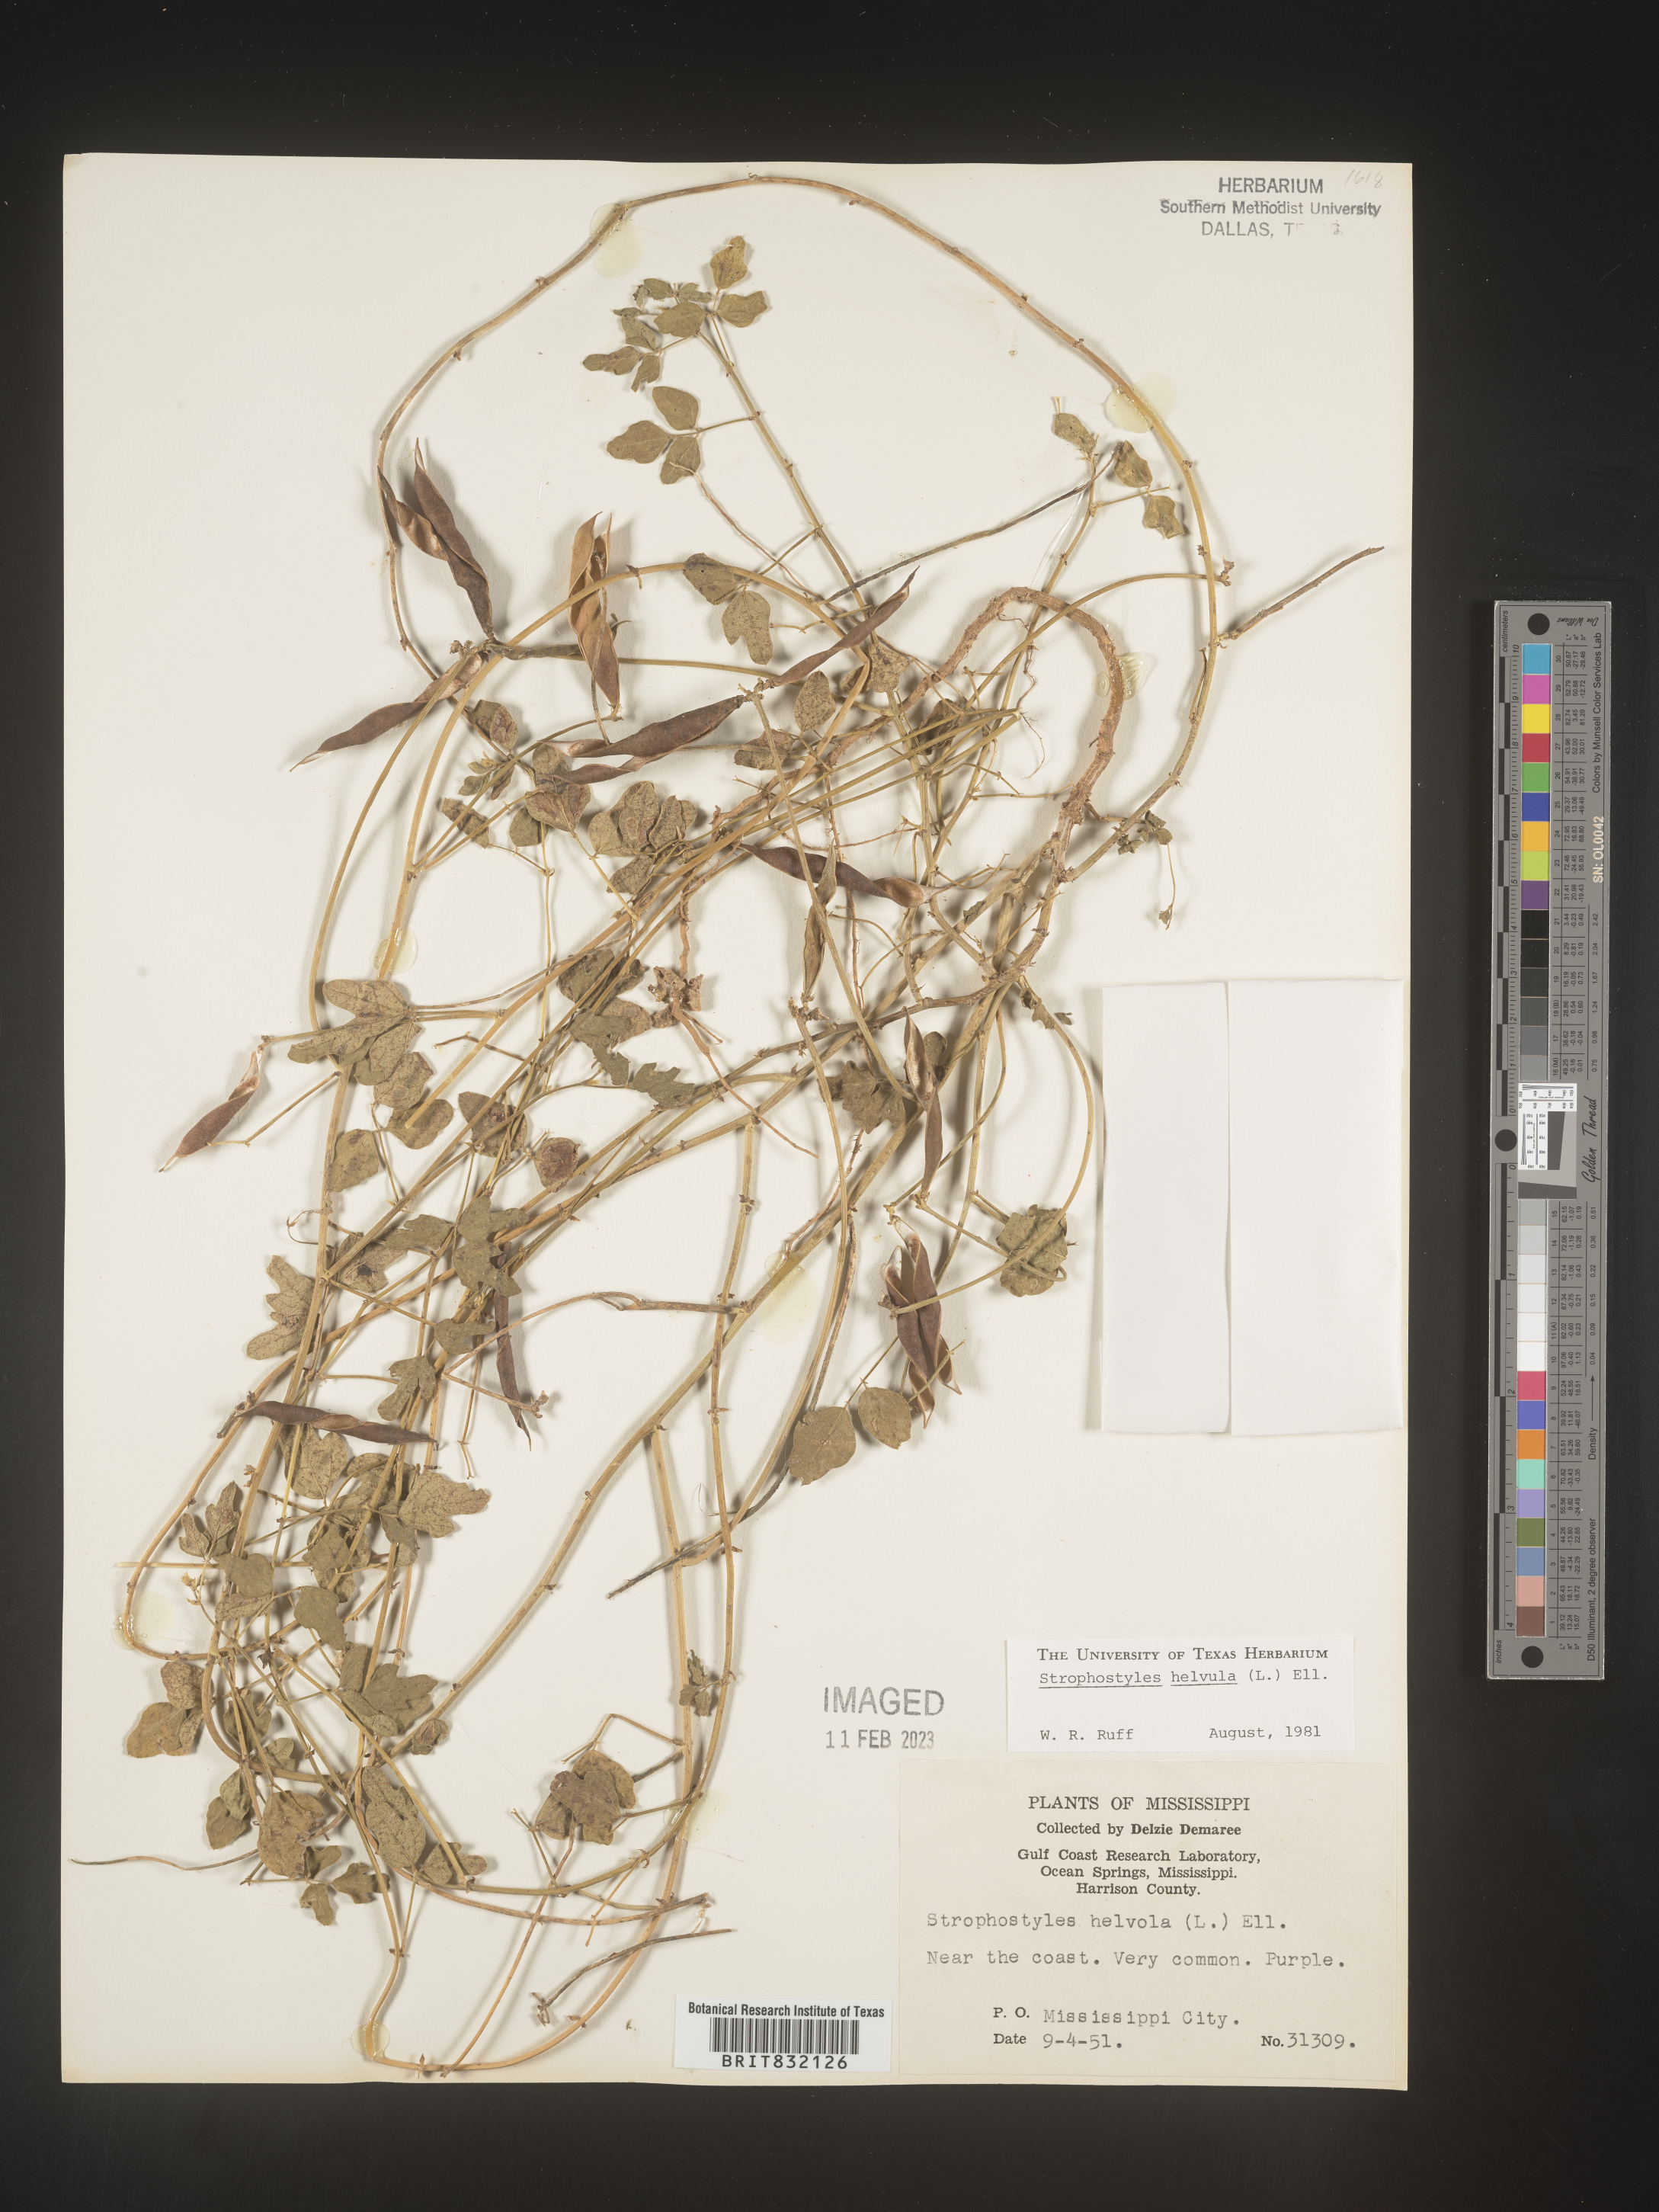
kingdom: Plantae
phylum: Tracheophyta
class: Magnoliopsida
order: Fabales
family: Fabaceae
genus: Strophostyles
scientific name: Strophostyles helvola
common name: Trailing wild bean
